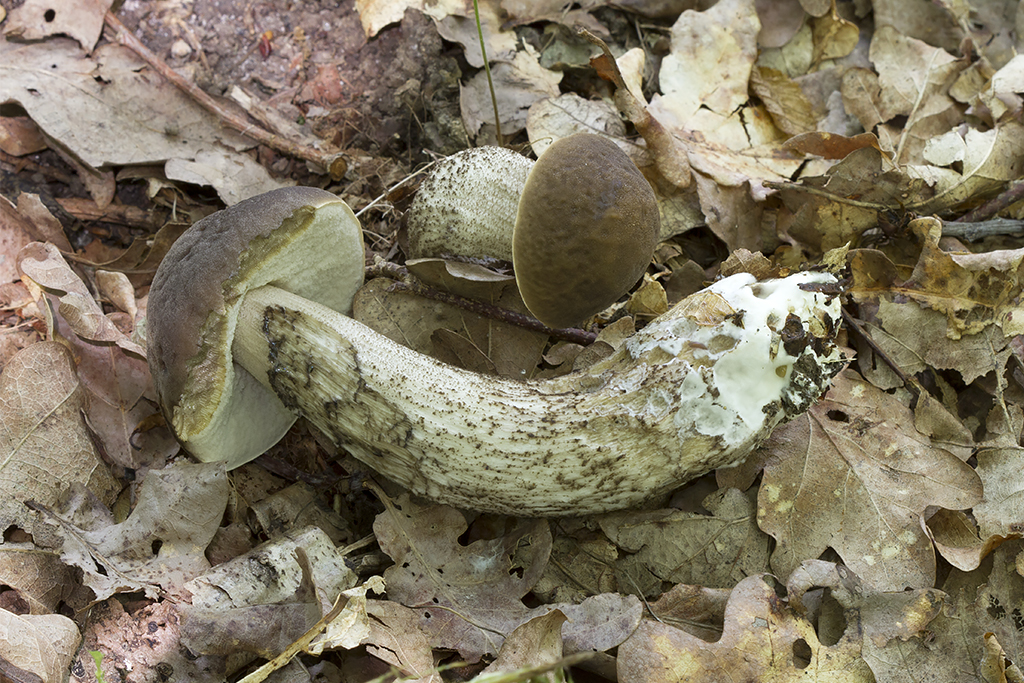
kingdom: Fungi
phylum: Basidiomycota
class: Agaricomycetes
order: Boletales
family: Boletaceae
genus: Leccinellum
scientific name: Leccinellum pseudoscabrum
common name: avnbøg-skælrørhat
